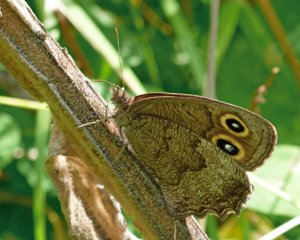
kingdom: Animalia
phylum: Arthropoda
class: Insecta
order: Lepidoptera
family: Nymphalidae
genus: Cercyonis
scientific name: Cercyonis pegala
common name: Common Wood-Nymph
